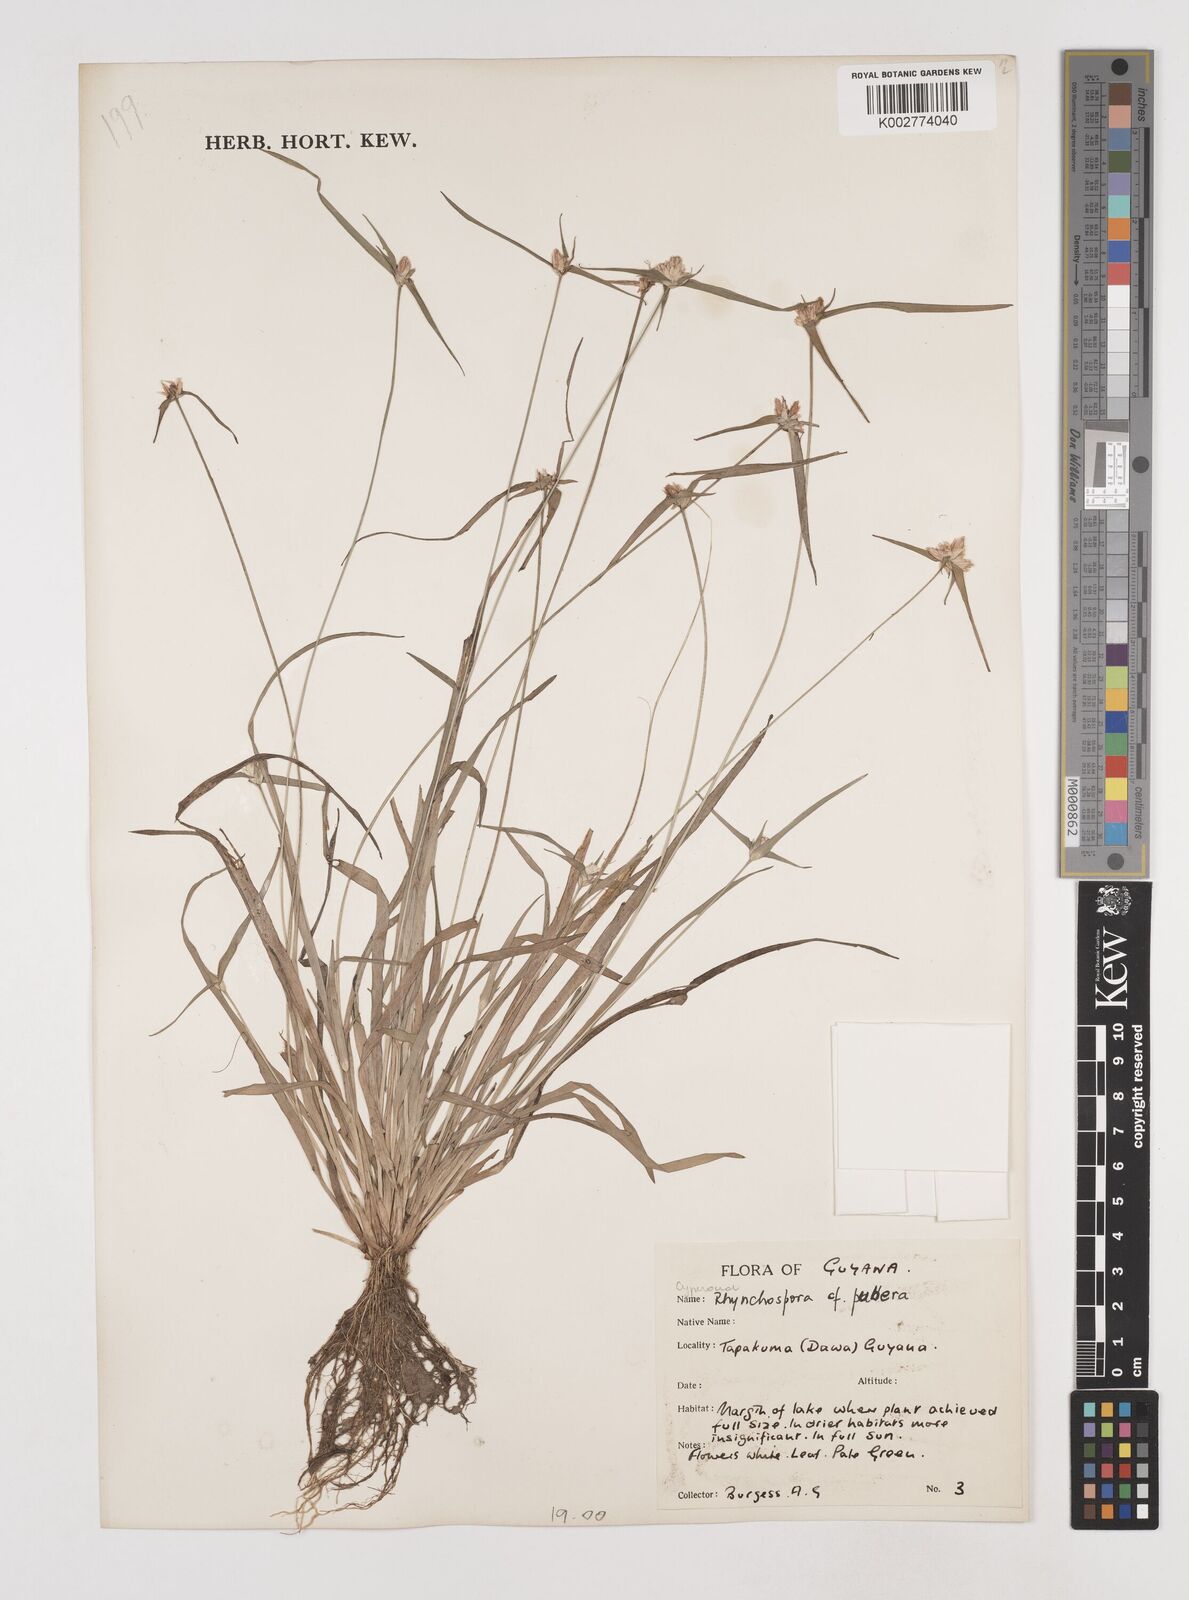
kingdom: Plantae
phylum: Tracheophyta
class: Liliopsida
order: Poales
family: Cyperaceae
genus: Rhynchospora
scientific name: Rhynchospora
